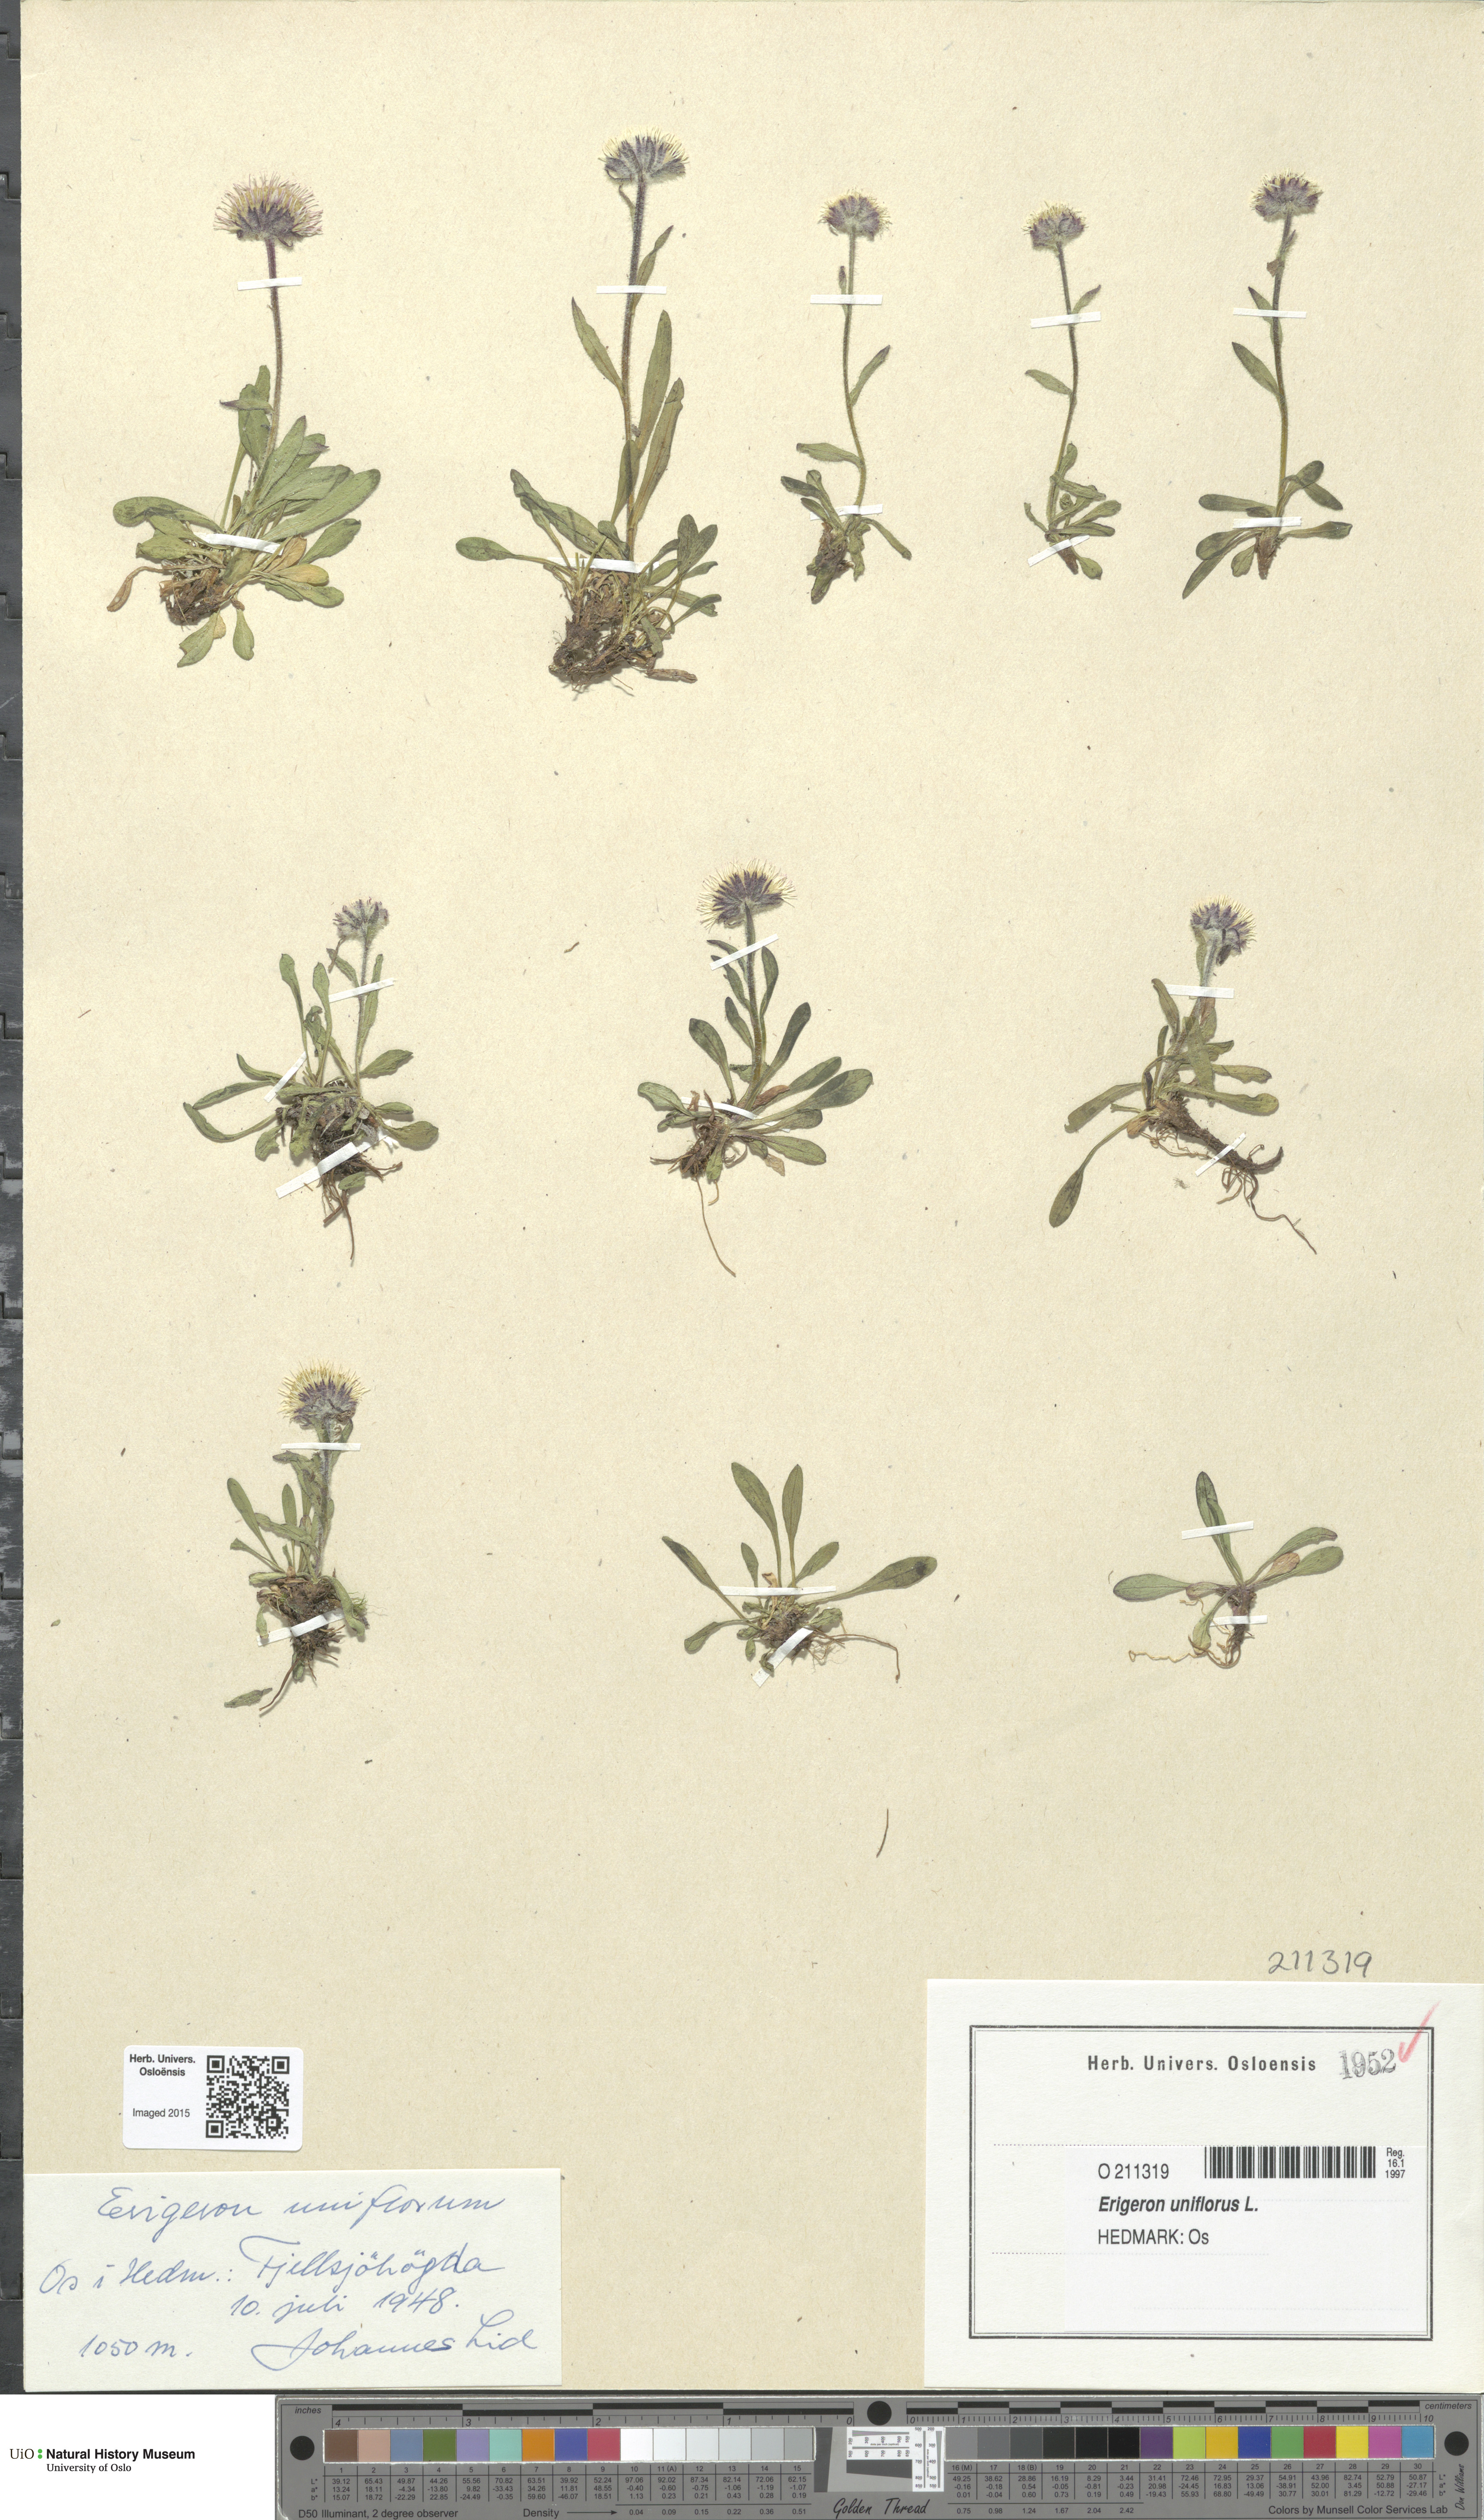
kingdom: Plantae
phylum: Tracheophyta
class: Magnoliopsida
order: Asterales
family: Asteraceae
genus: Erigeron
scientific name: Erigeron uniflorus
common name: Northern daisy
